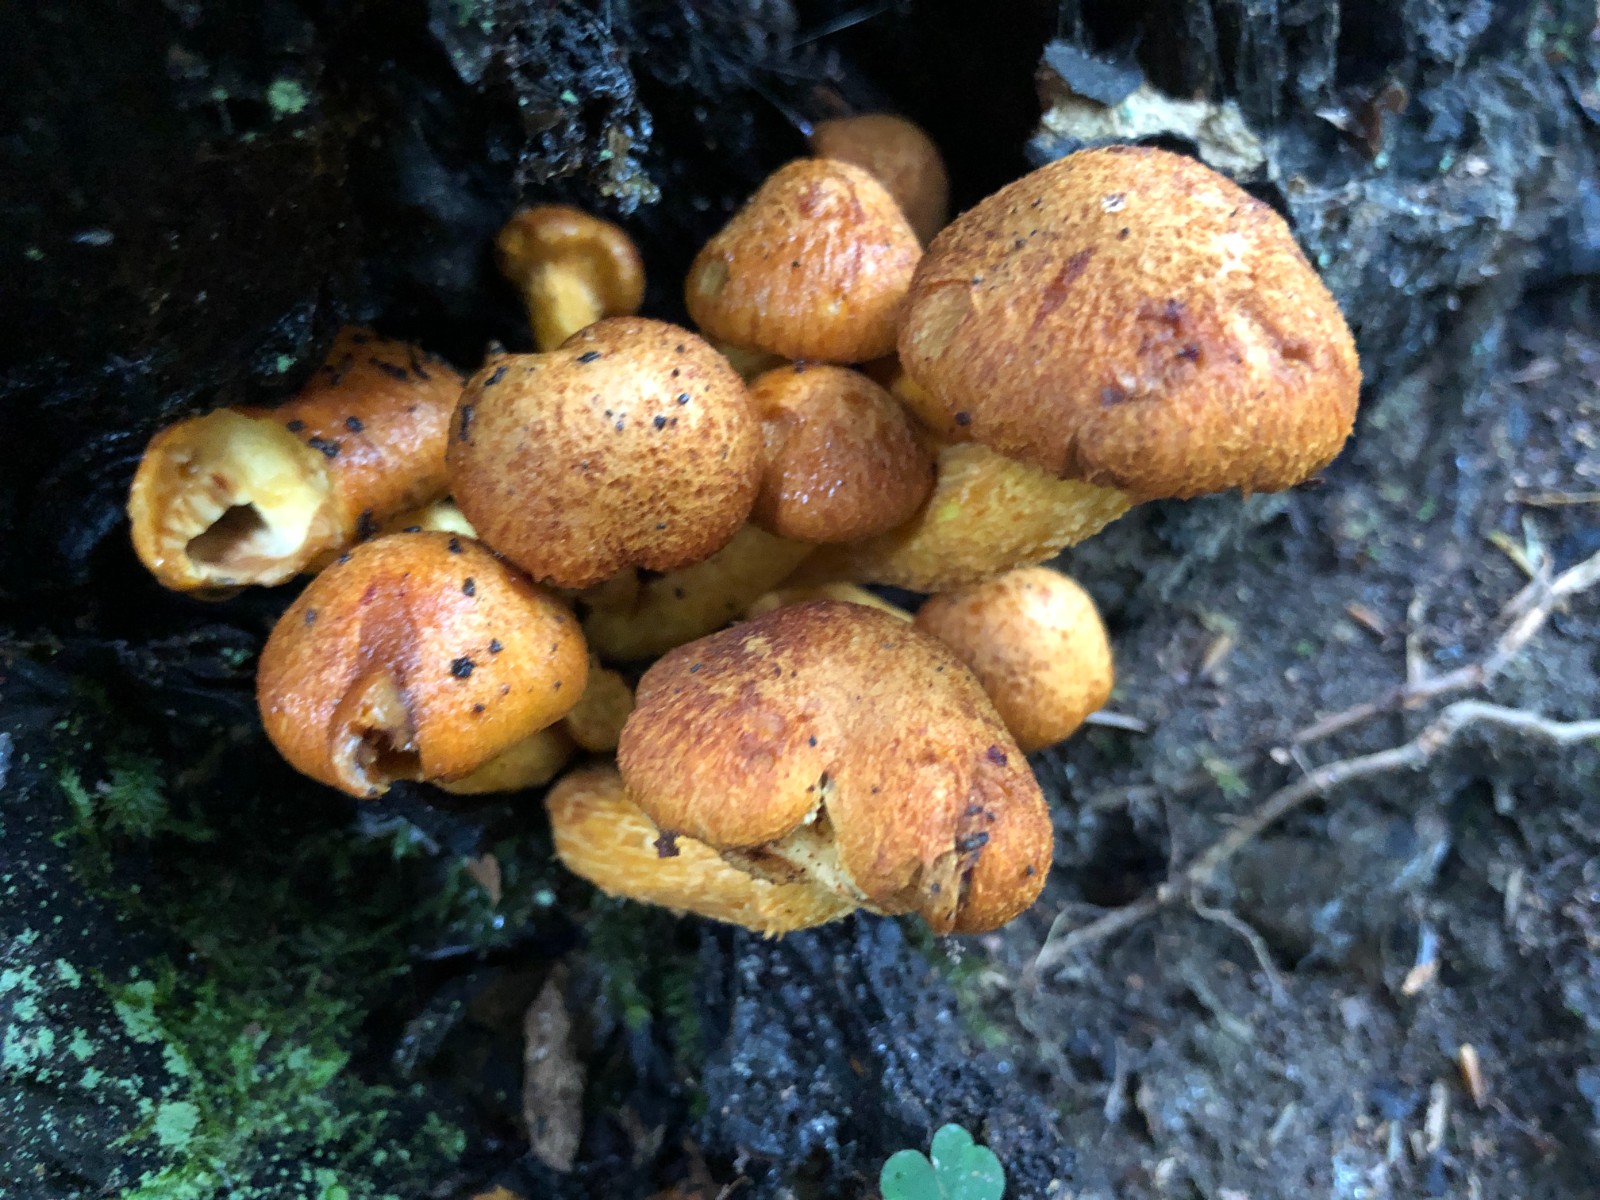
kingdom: Fungi
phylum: Basidiomycota
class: Agaricomycetes
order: Agaricales
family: Hymenogastraceae
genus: Gymnopilus
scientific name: Gymnopilus spectabilis
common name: fibret flammehat
